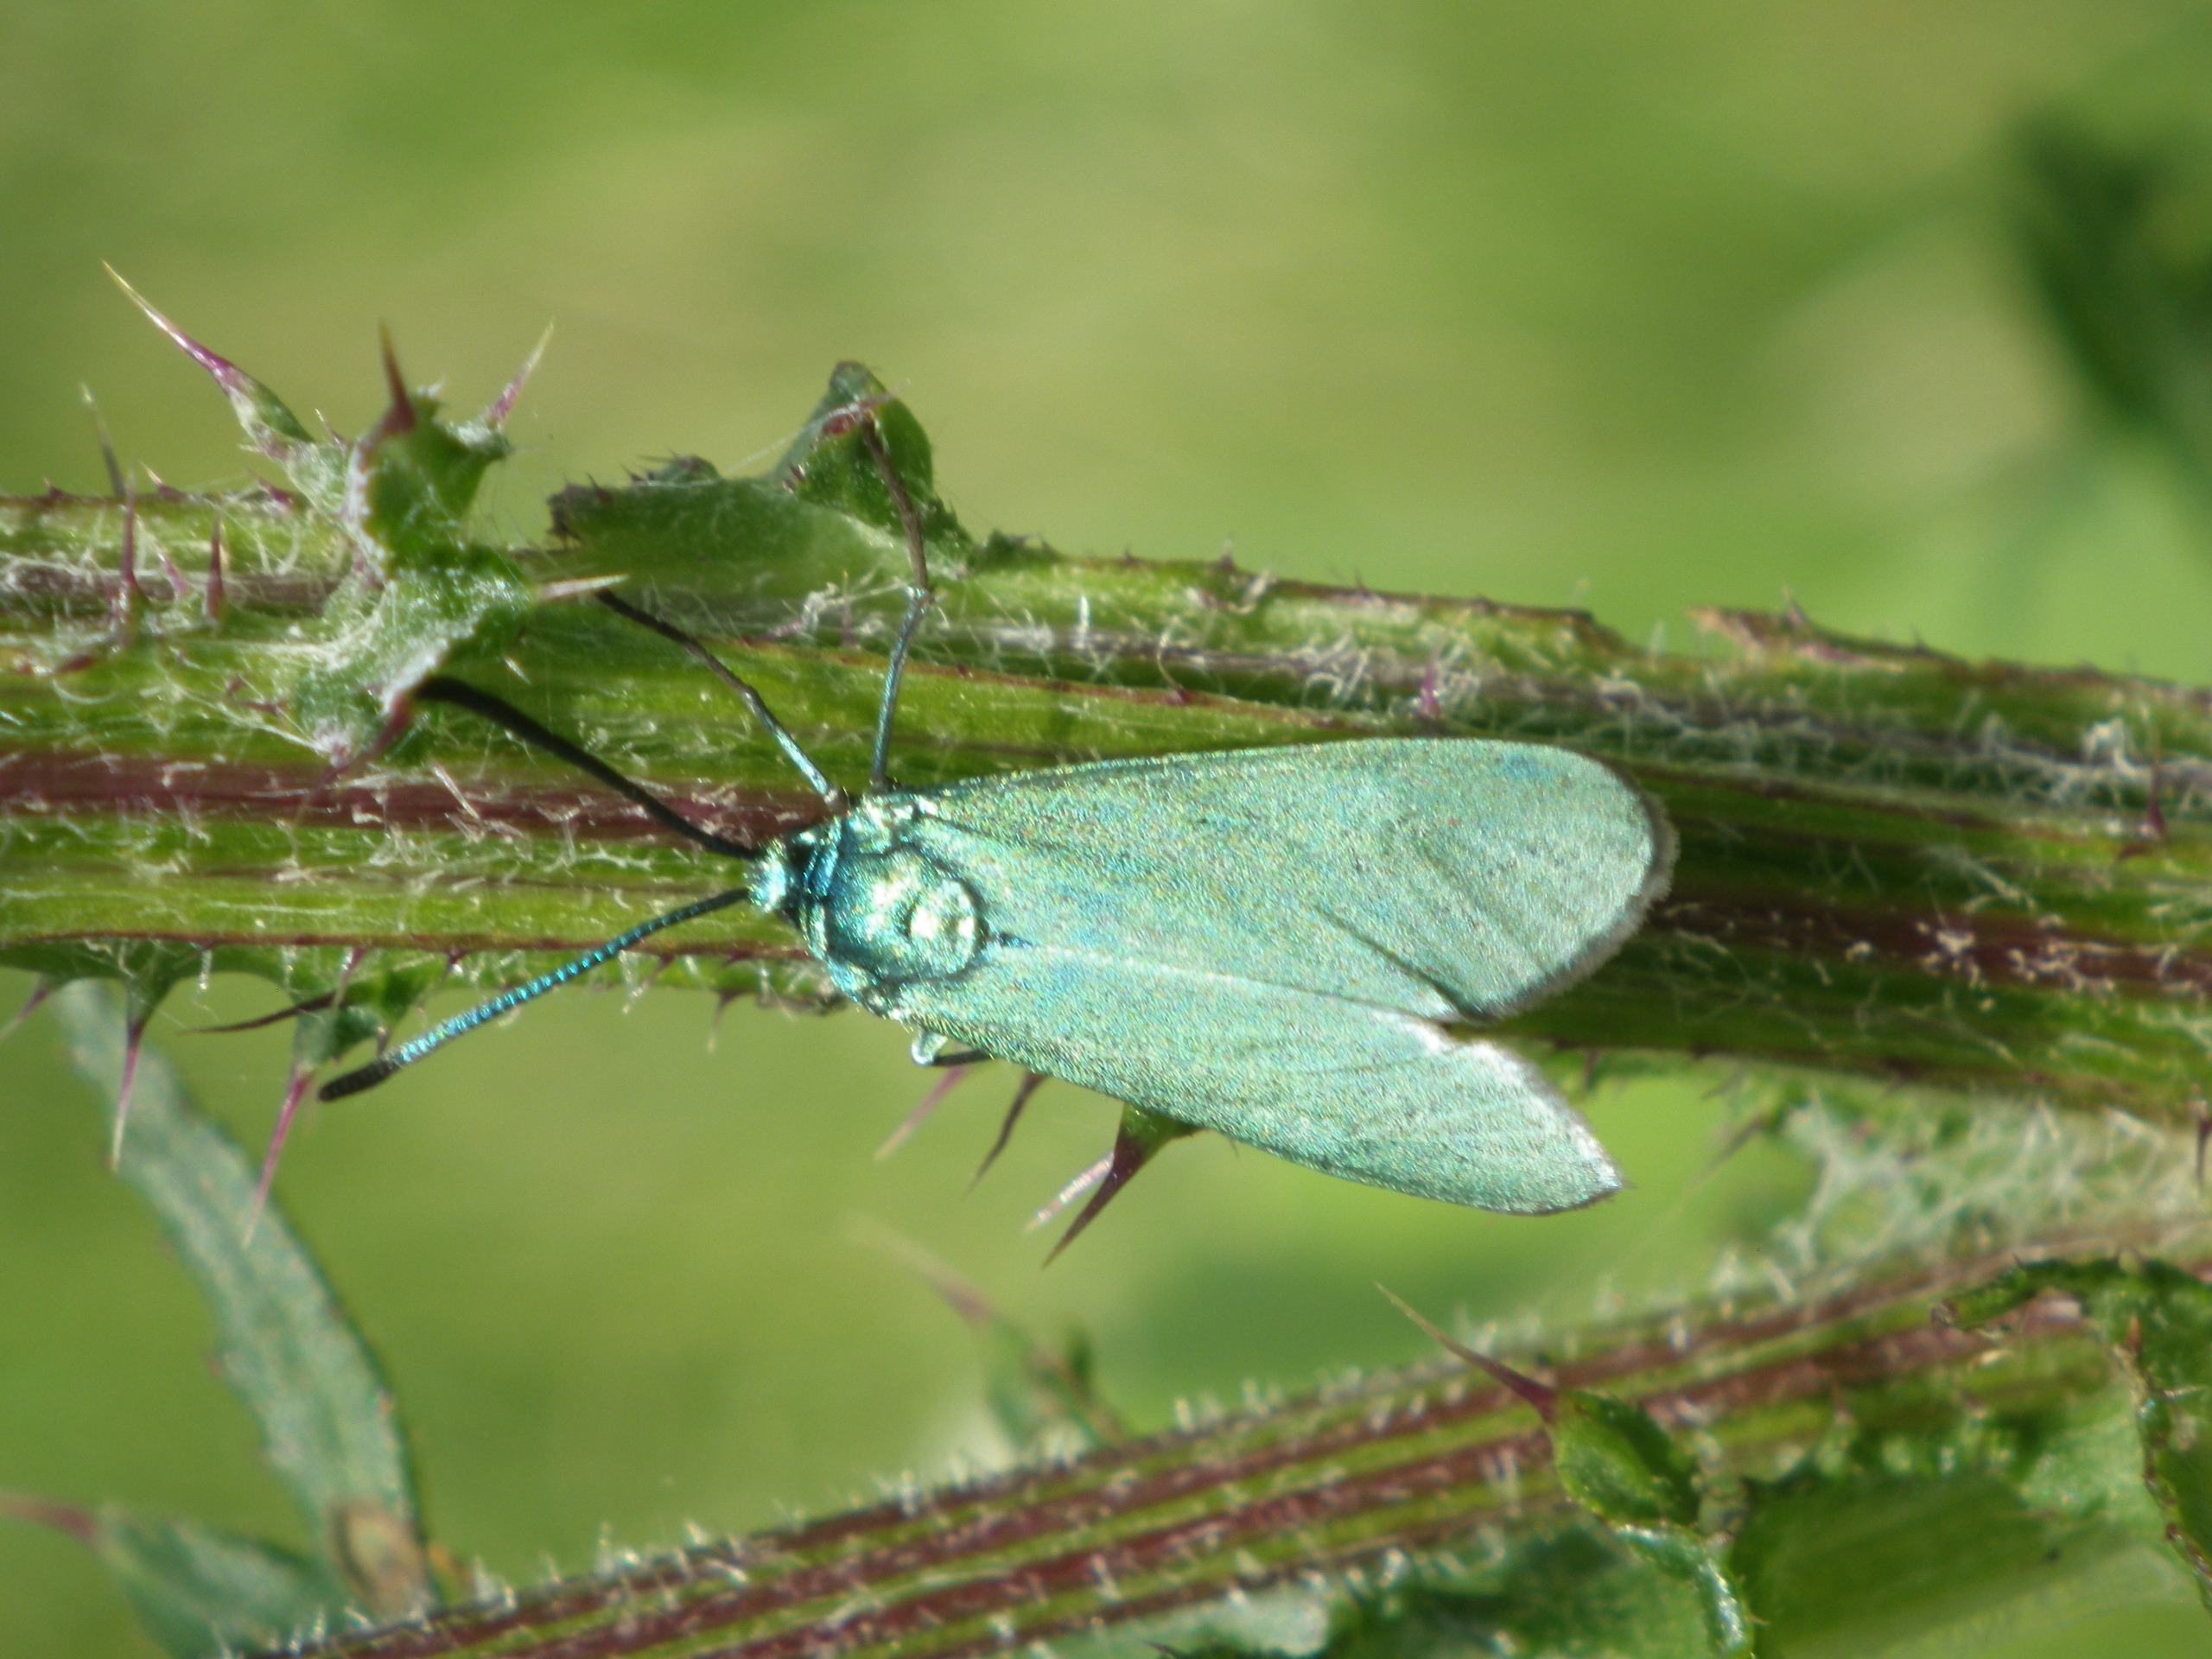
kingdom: Animalia
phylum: Arthropoda
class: Insecta
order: Lepidoptera
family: Zygaenidae
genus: Adscita
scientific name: Adscita statices
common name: Metalvinge
